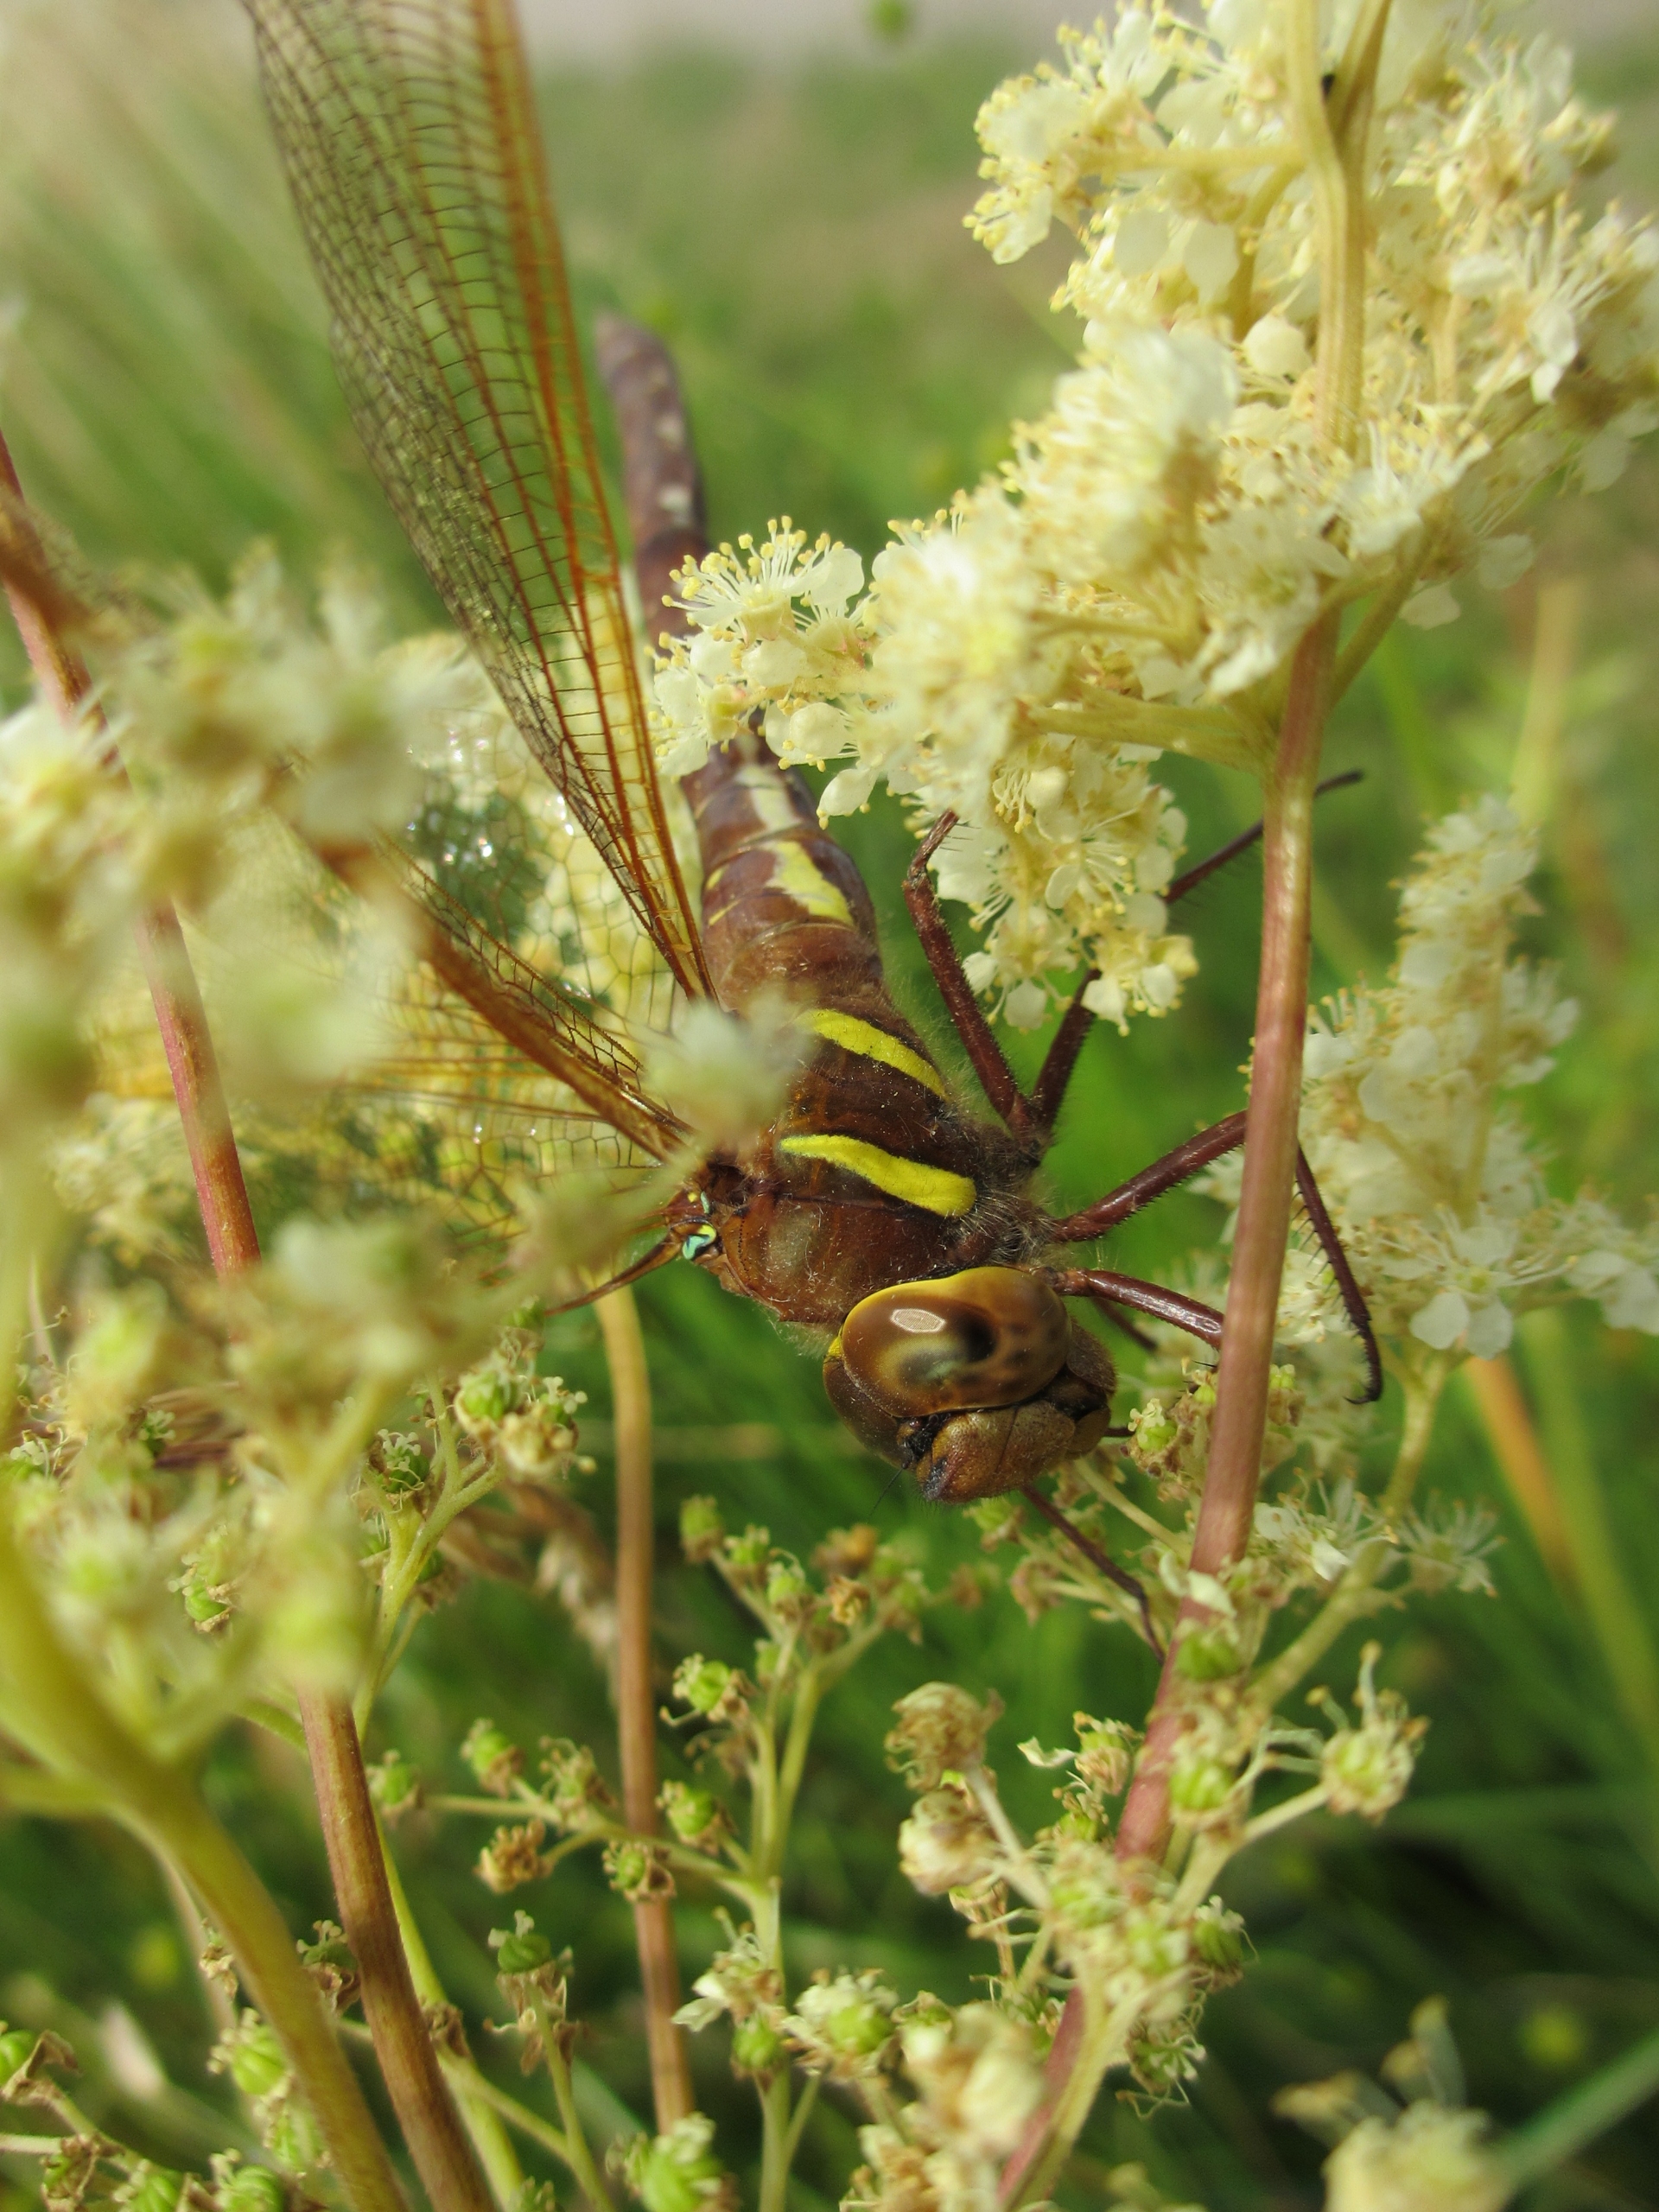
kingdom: Animalia
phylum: Arthropoda
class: Insecta
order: Odonata
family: Aeshnidae
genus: Aeshna
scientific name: Aeshna grandis
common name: Brun mosaikguldsmed
